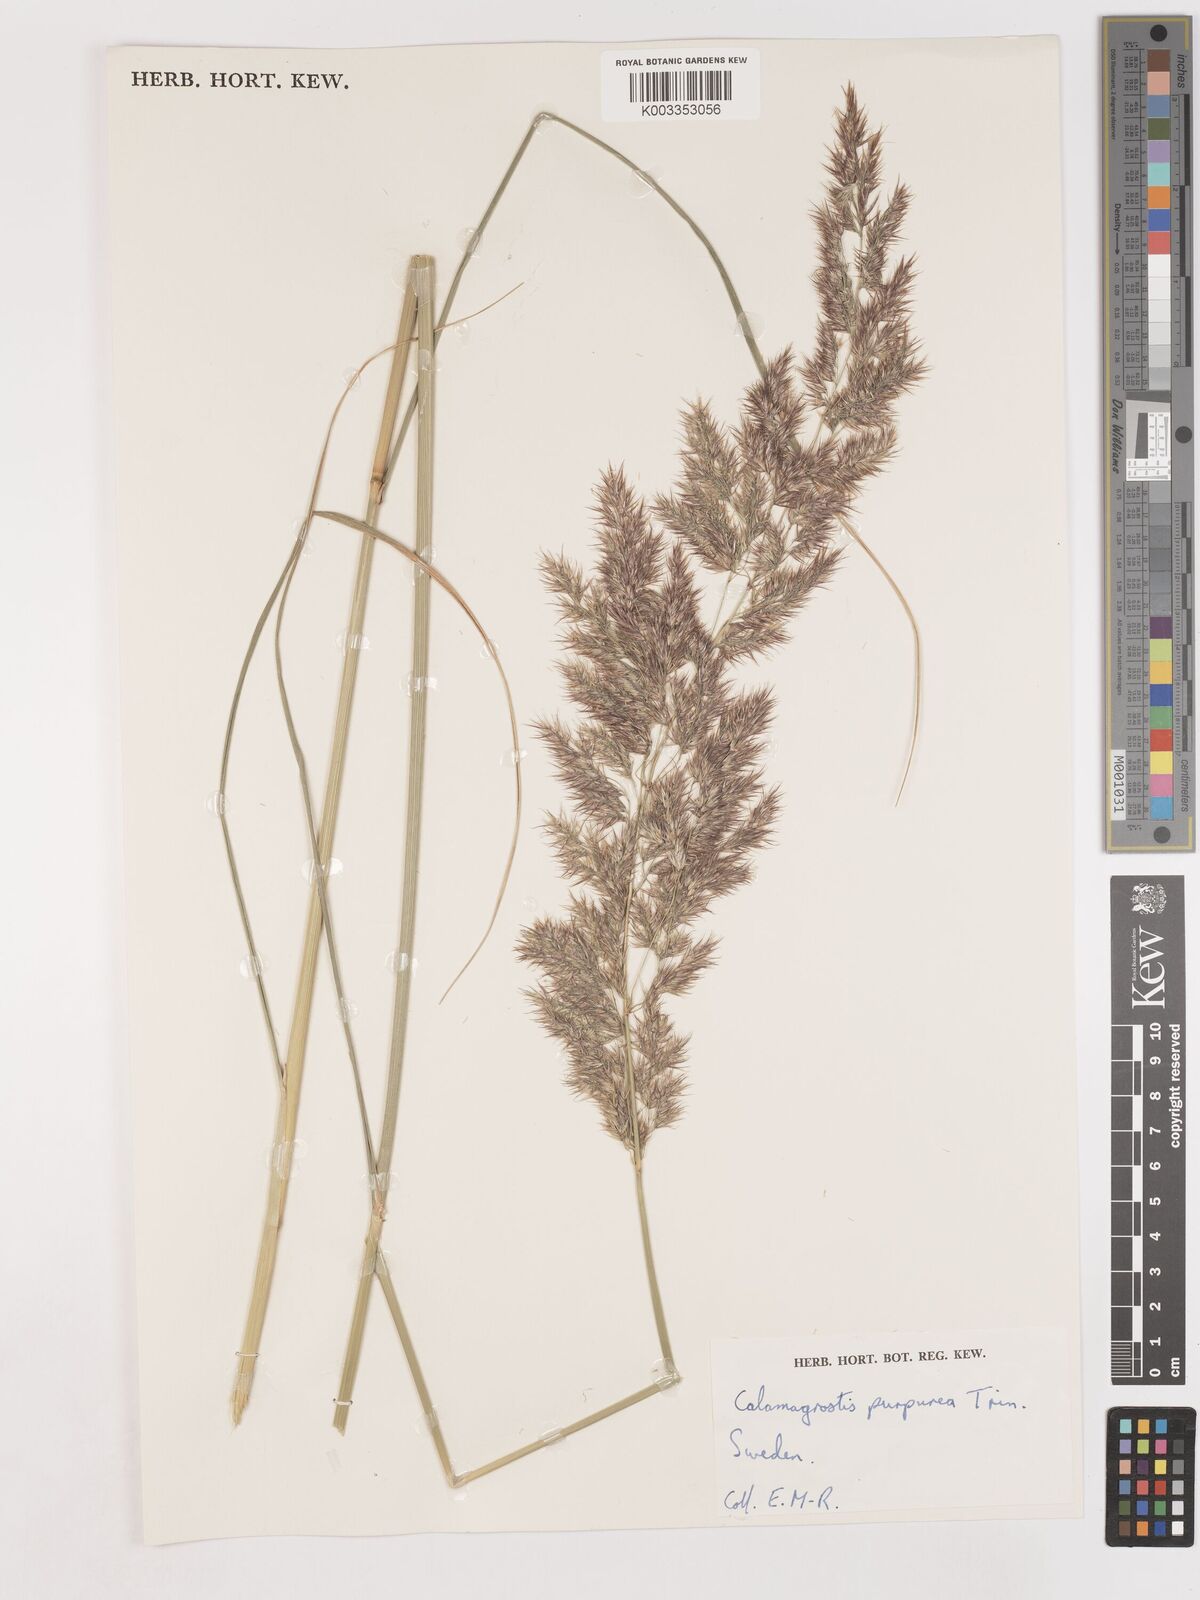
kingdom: Plantae
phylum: Tracheophyta
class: Liliopsida
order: Poales
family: Poaceae
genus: Calamagrostis
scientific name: Calamagrostis epigejos
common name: Wood small-reed
